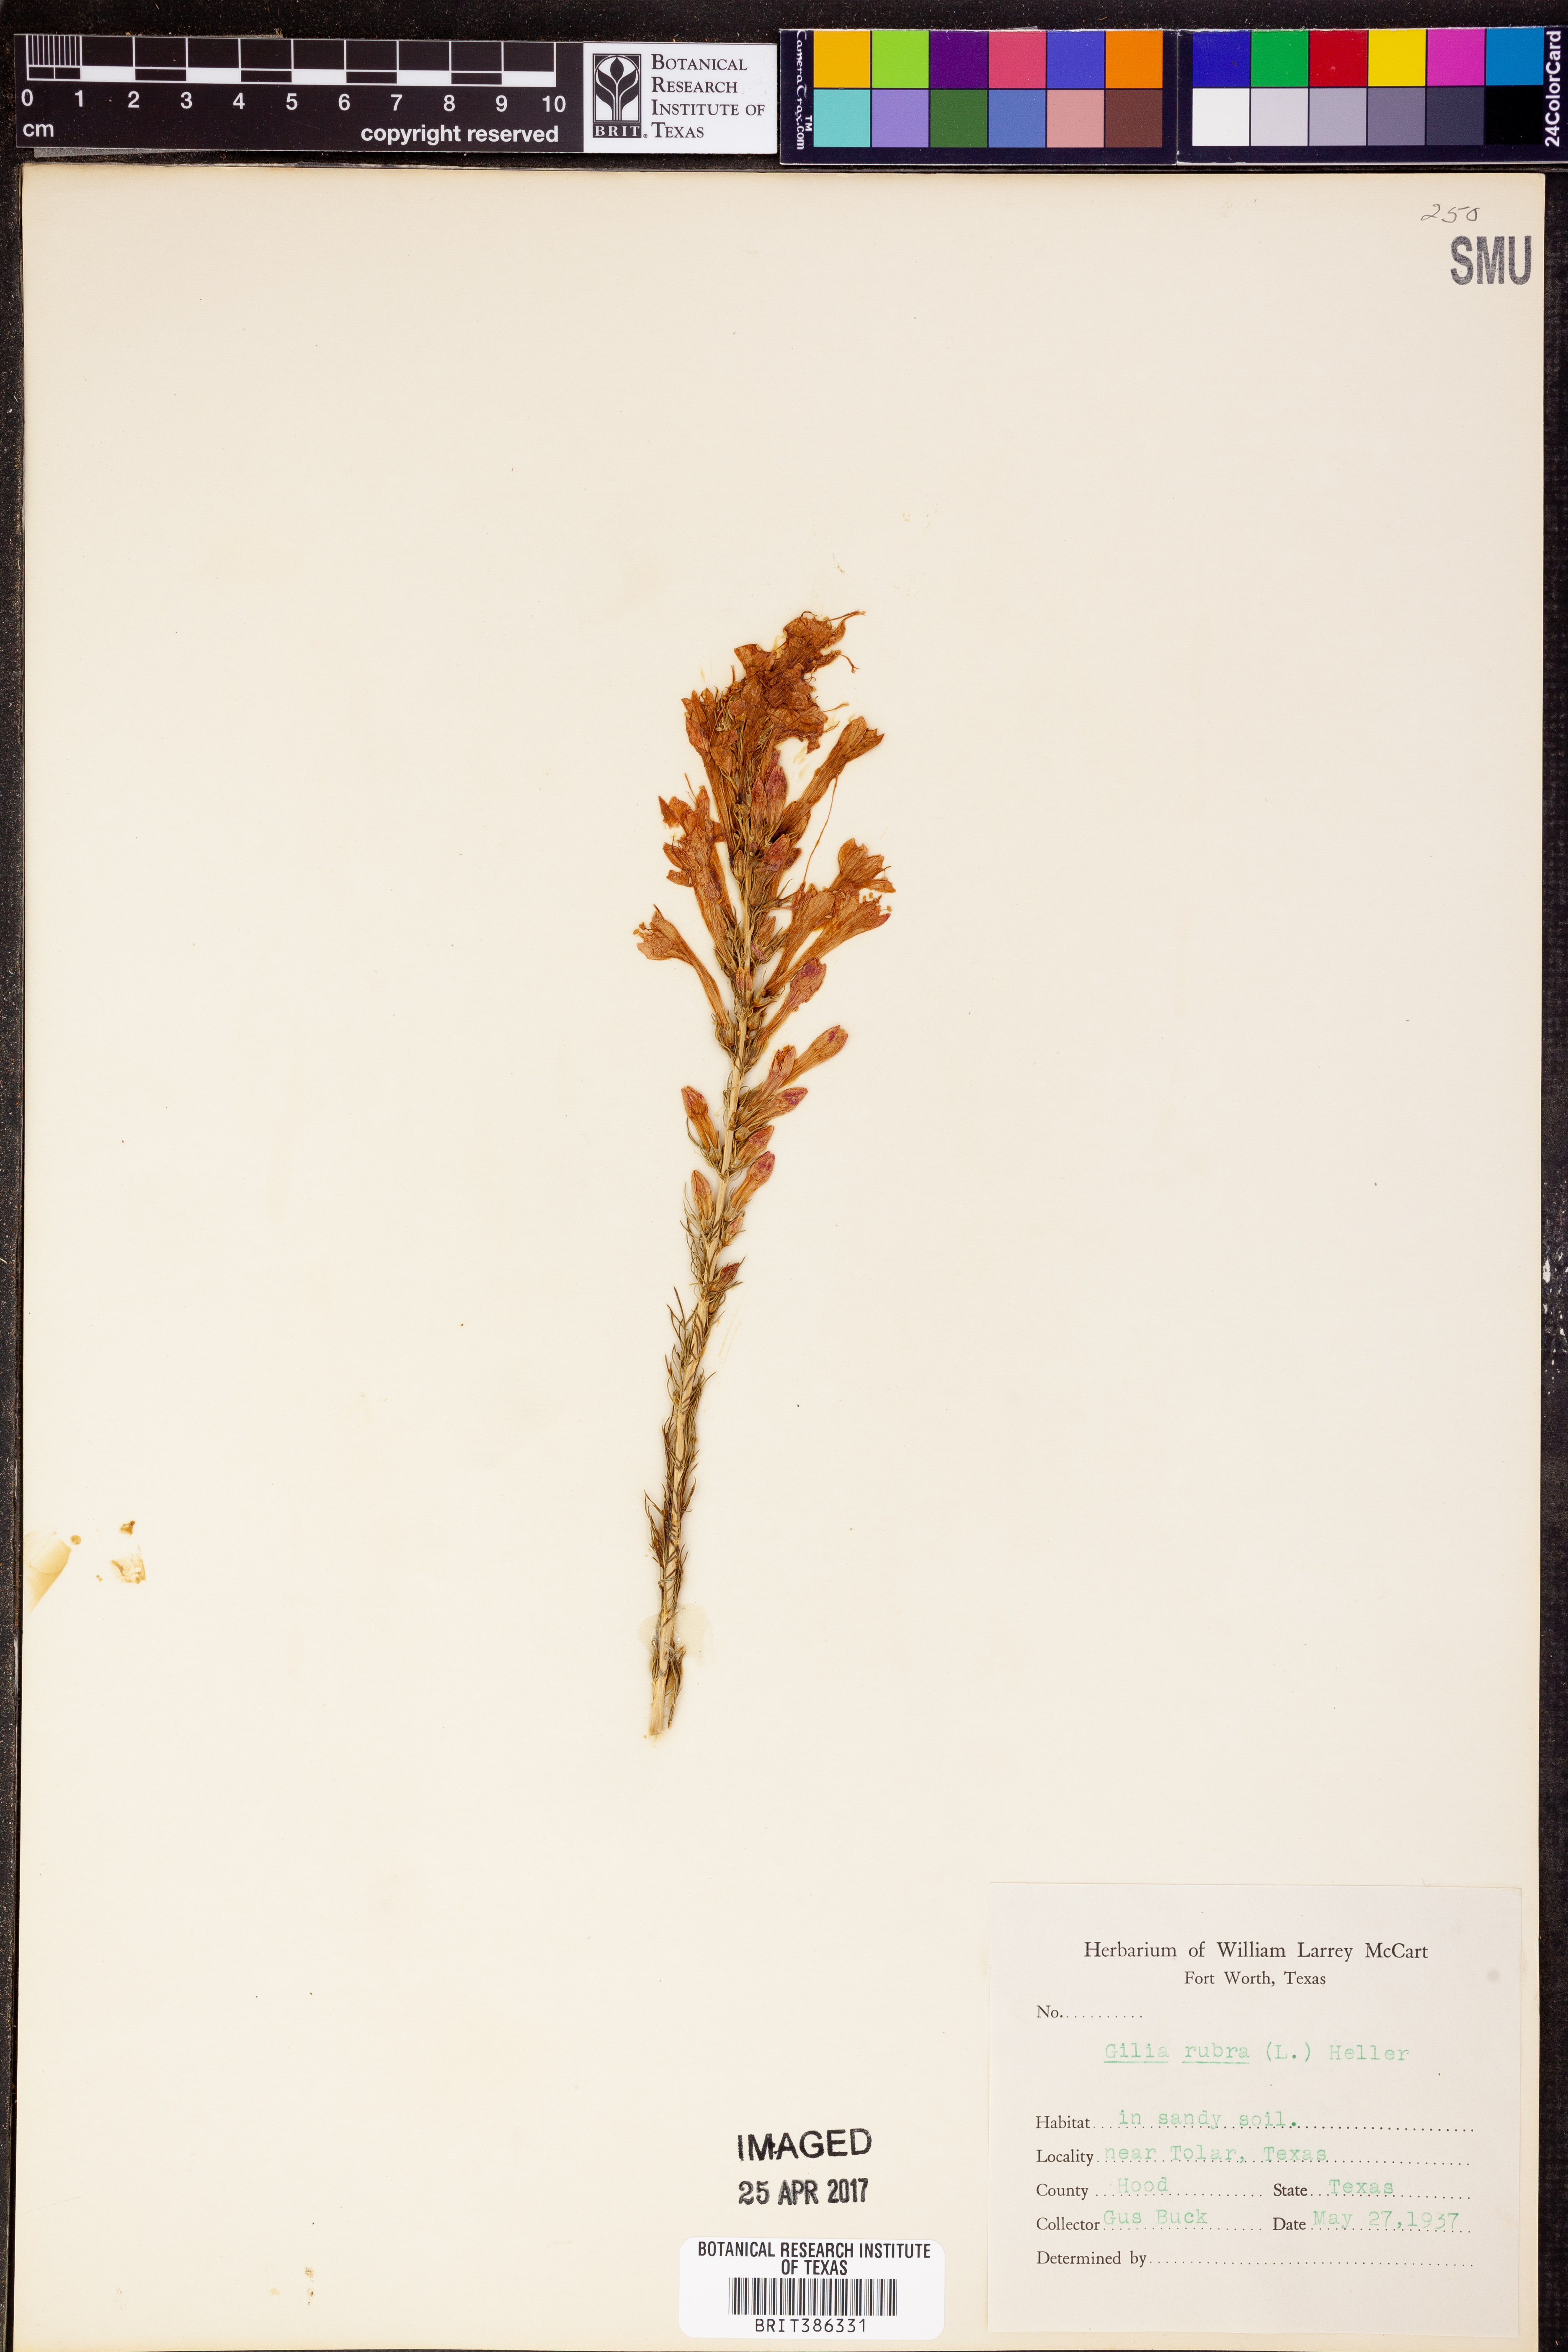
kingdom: Plantae
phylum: Tracheophyta
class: Magnoliopsida
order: Ericales
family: Polemoniaceae
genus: Ipomopsis
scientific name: Ipomopsis rubra
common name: Skyrocket
